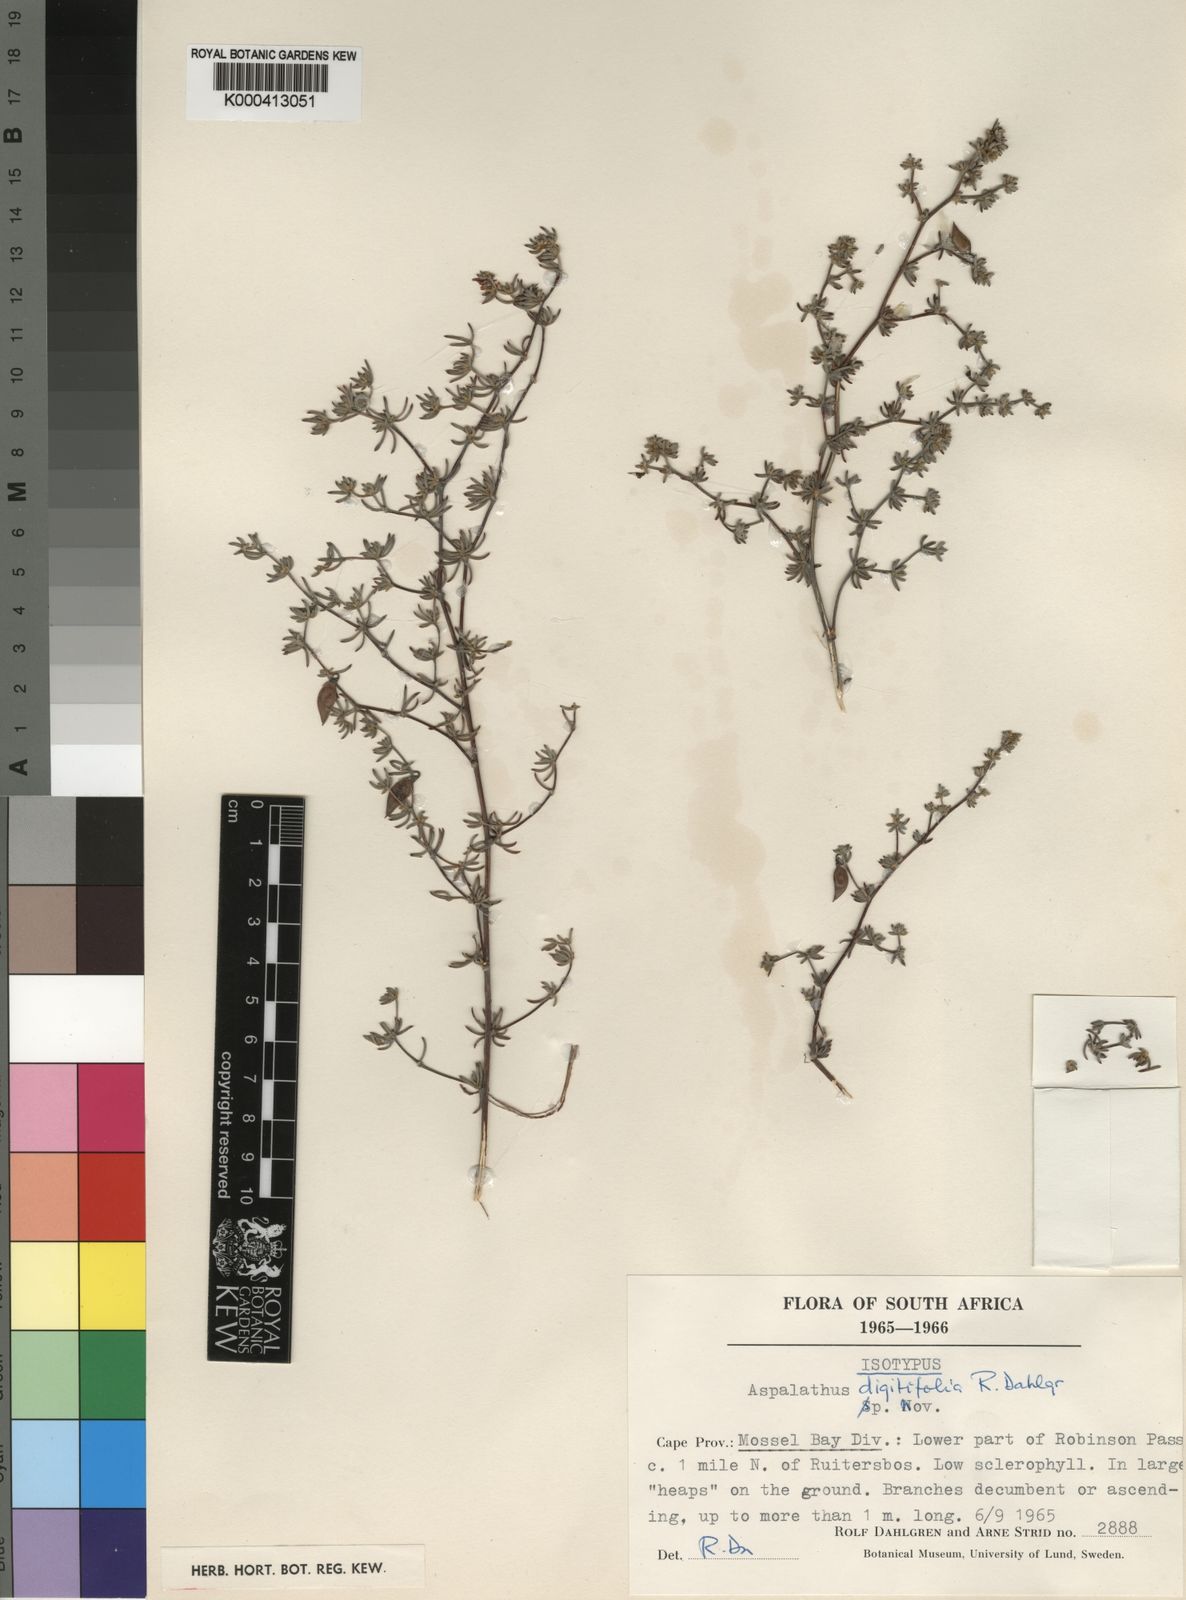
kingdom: Plantae
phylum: Tracheophyta
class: Magnoliopsida
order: Fabales
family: Fabaceae
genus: Aspalathus
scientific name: Aspalathus digitifolia
